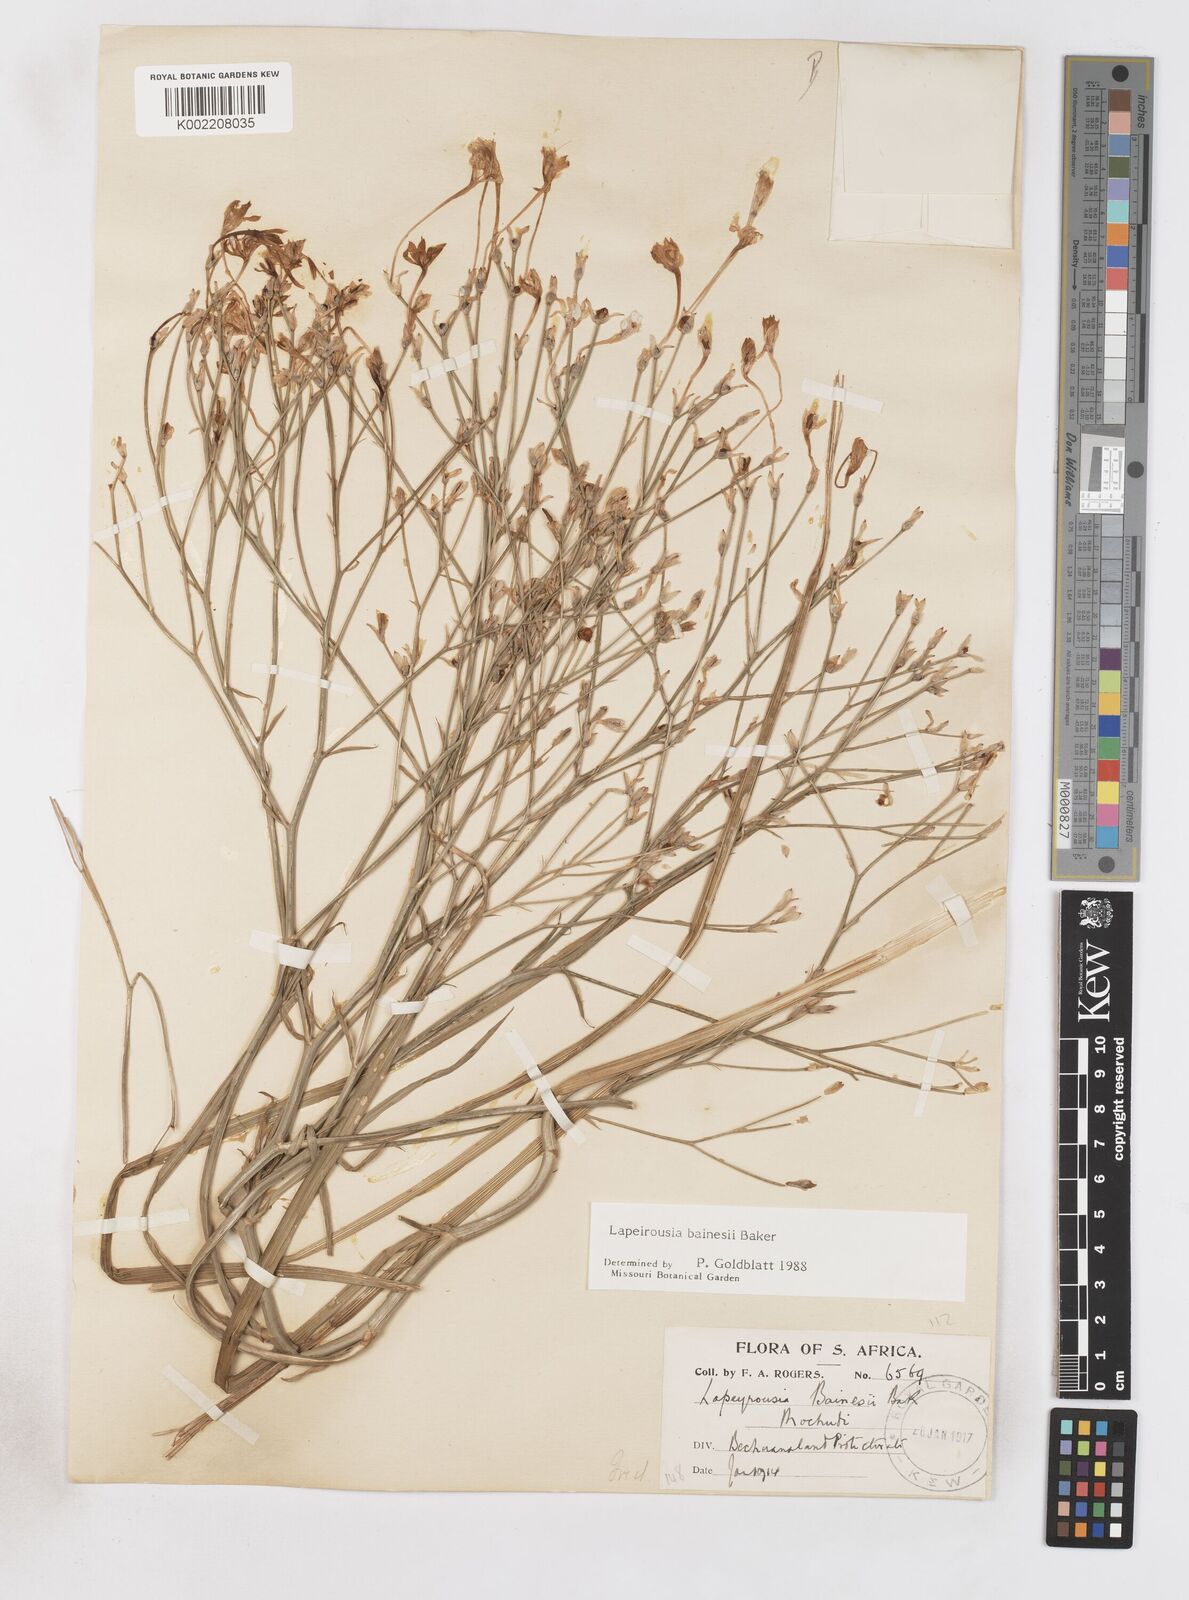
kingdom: Plantae
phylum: Tracheophyta
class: Liliopsida
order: Asparagales
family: Iridaceae
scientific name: Iridaceae
